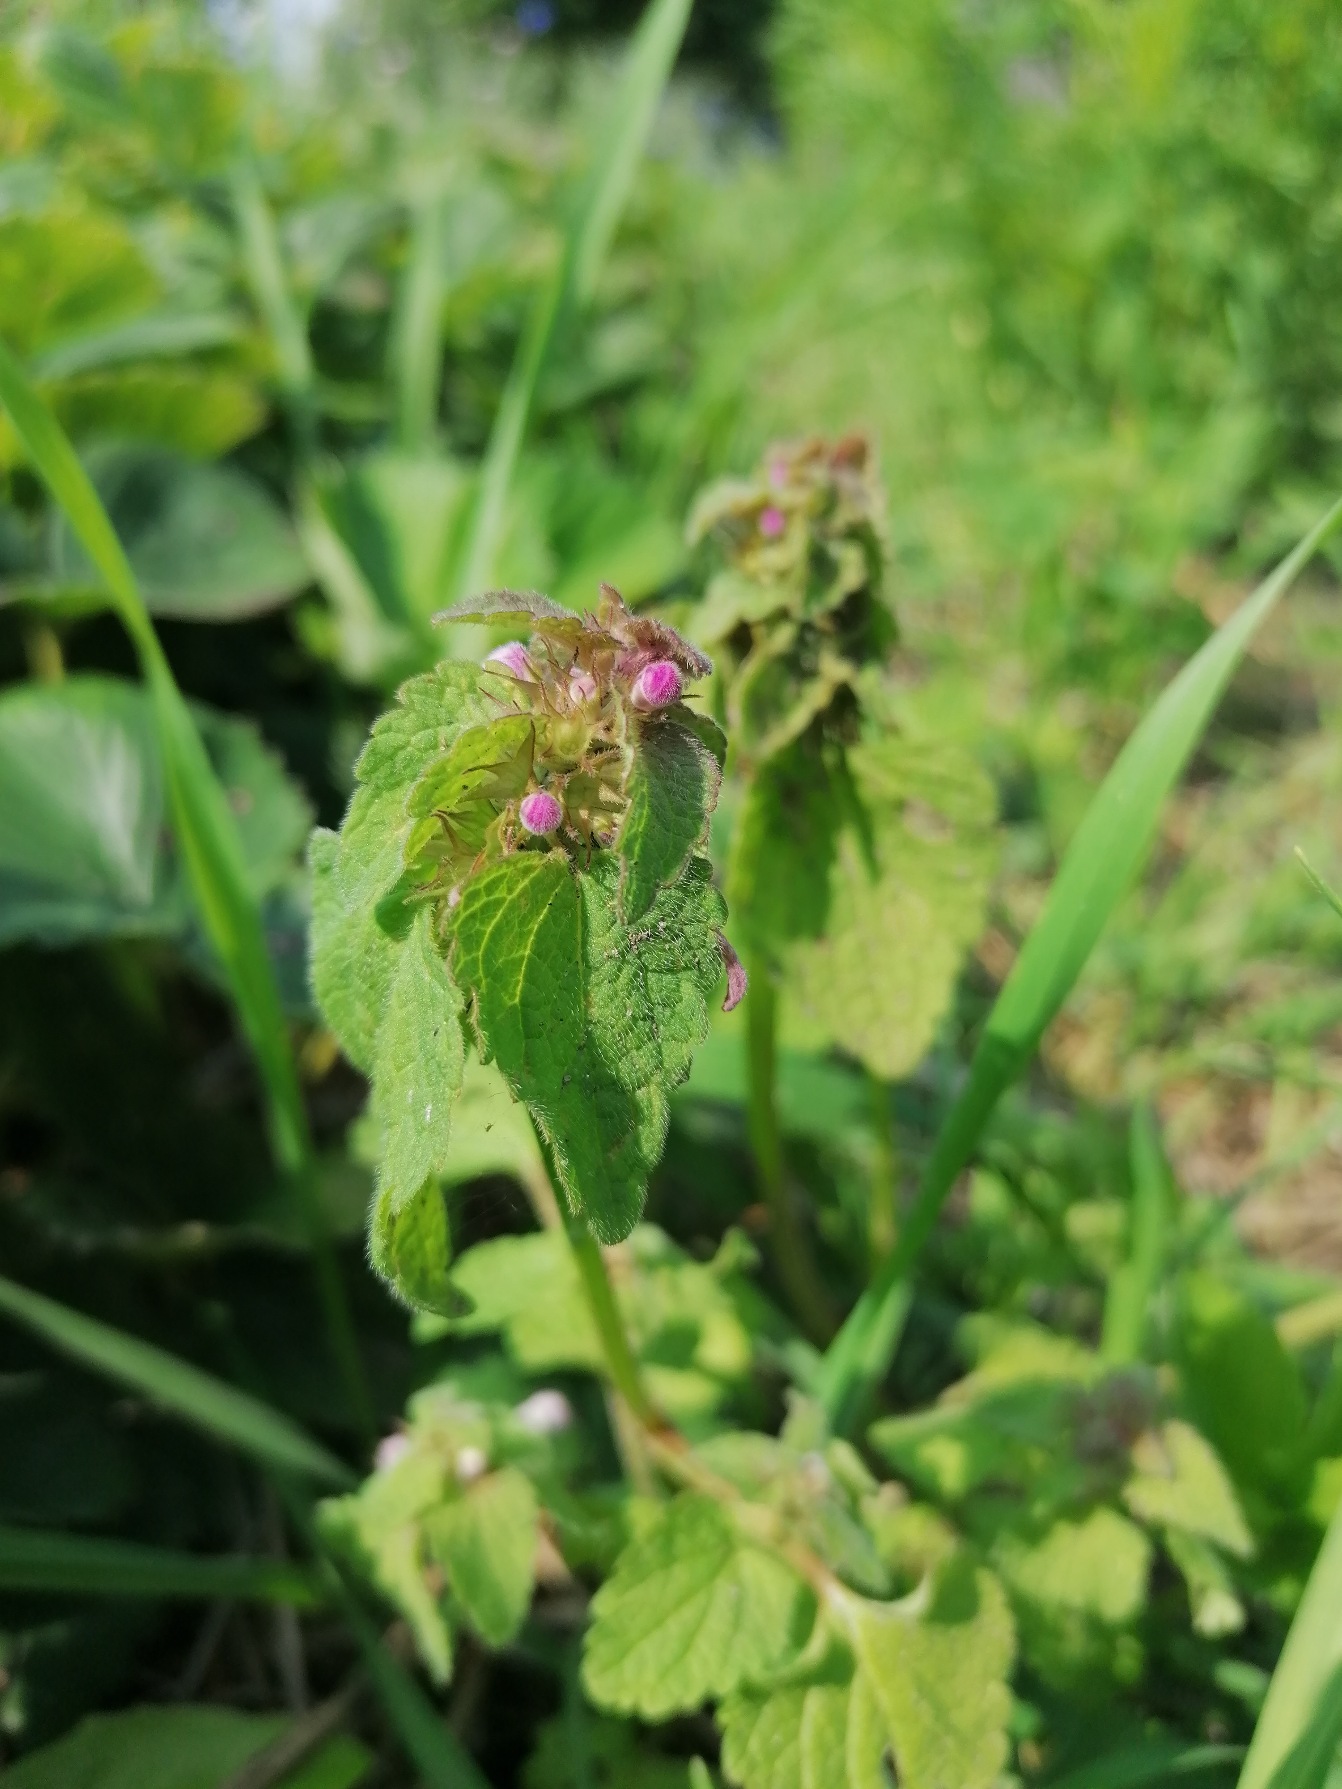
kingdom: Plantae
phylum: Tracheophyta
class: Magnoliopsida
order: Lamiales
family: Lamiaceae
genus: Lamium
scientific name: Lamium purpureum
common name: Rød tvetand
